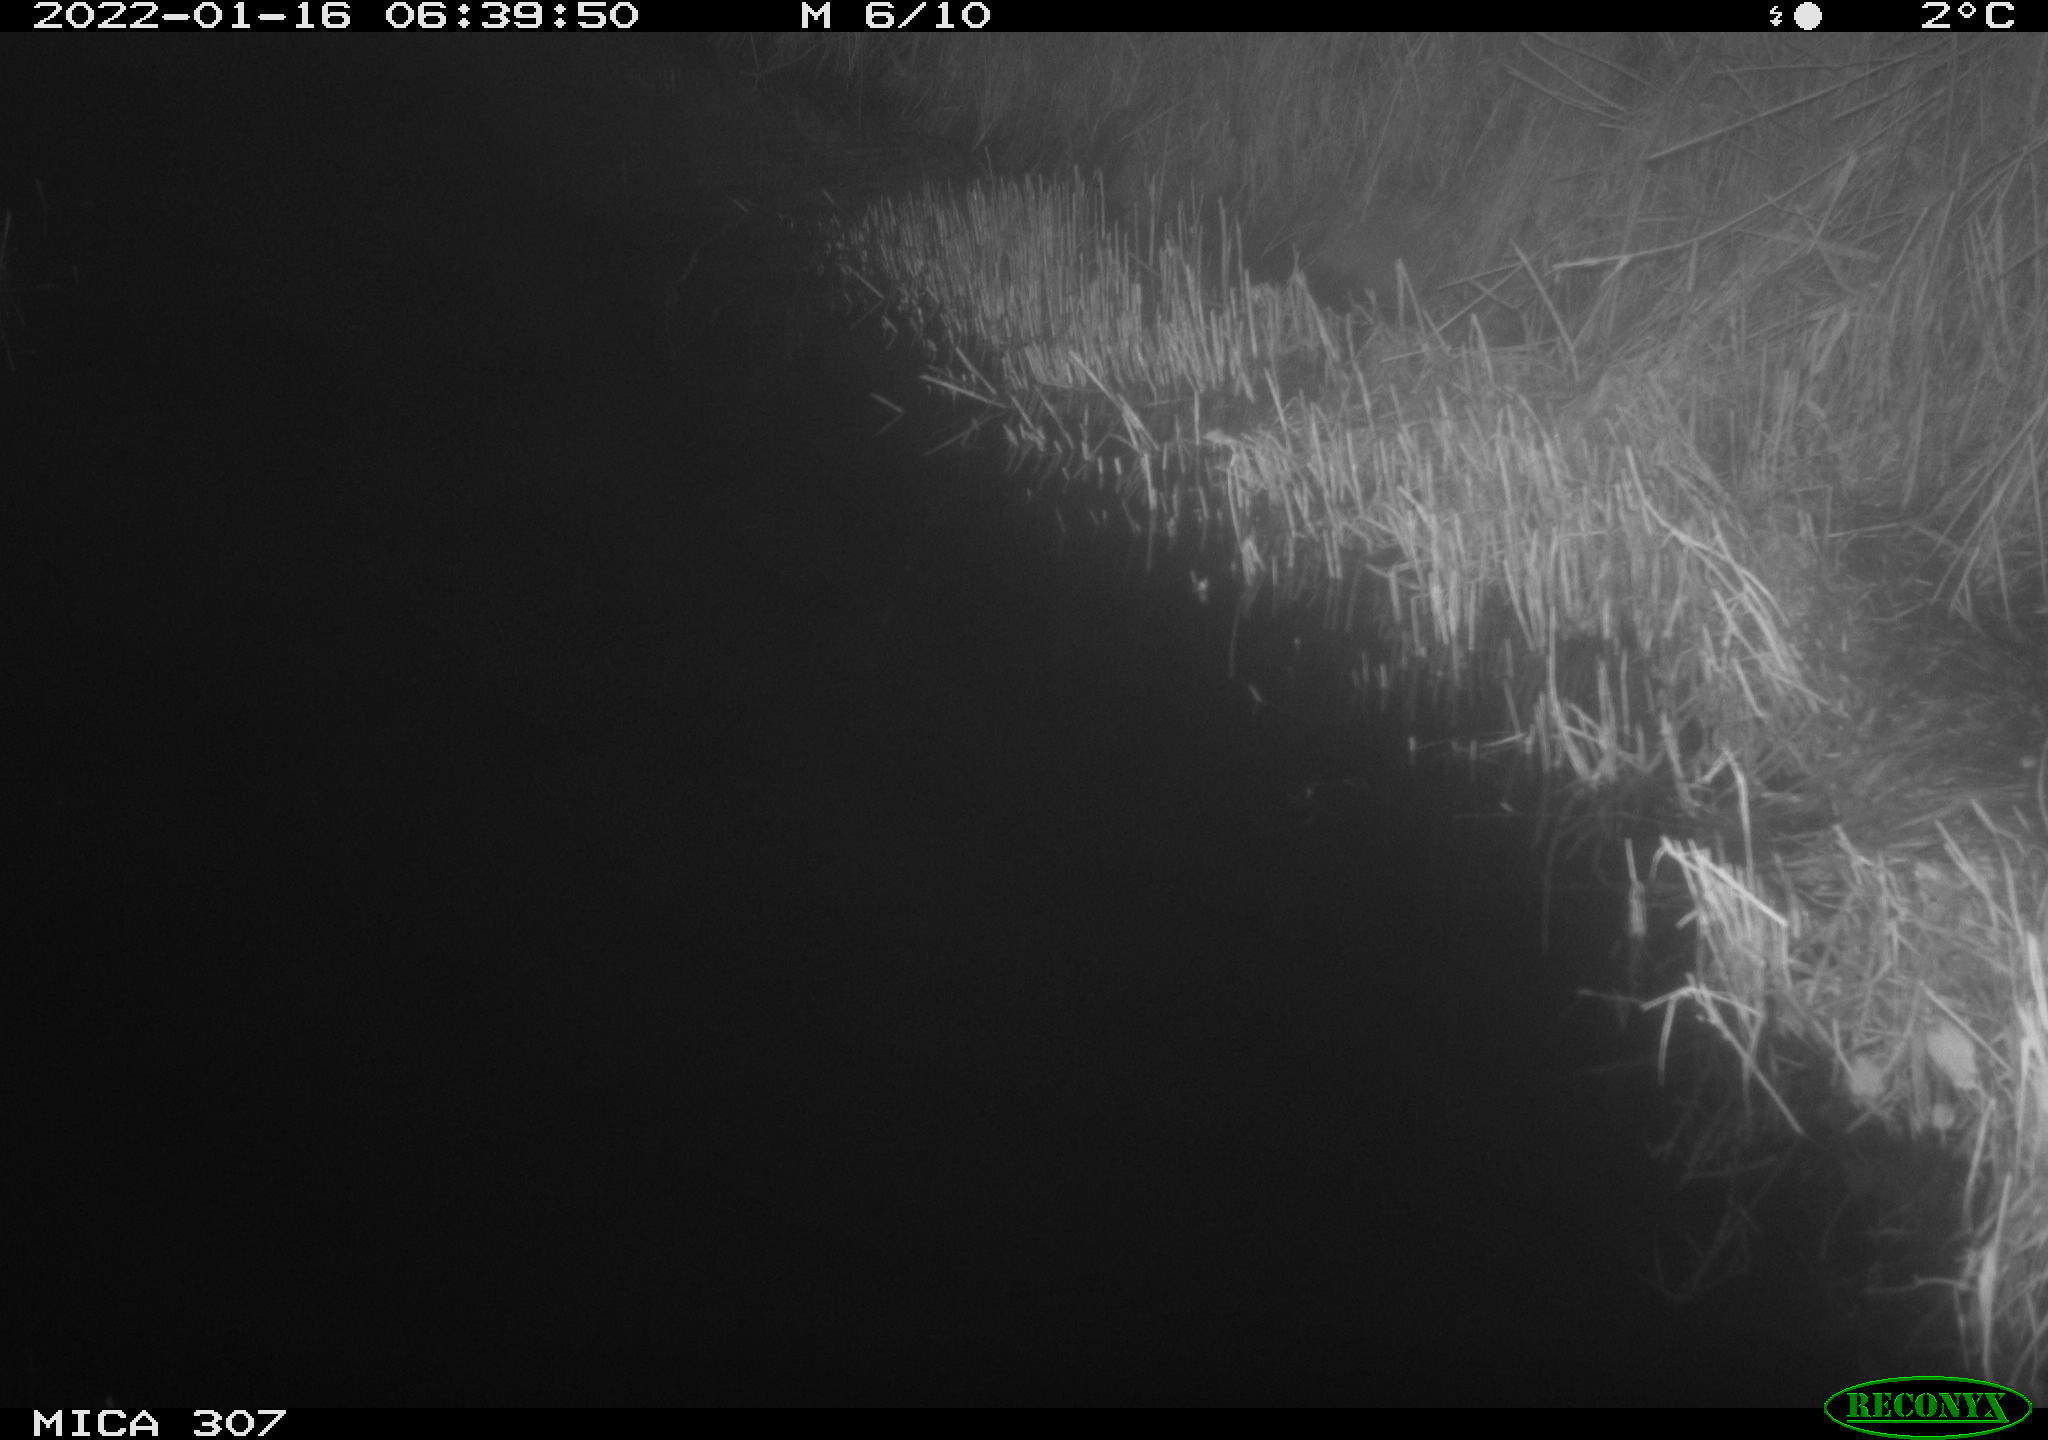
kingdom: Animalia
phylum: Chordata
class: Mammalia
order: Rodentia
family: Muridae
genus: Rattus
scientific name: Rattus norvegicus
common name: Brown rat
